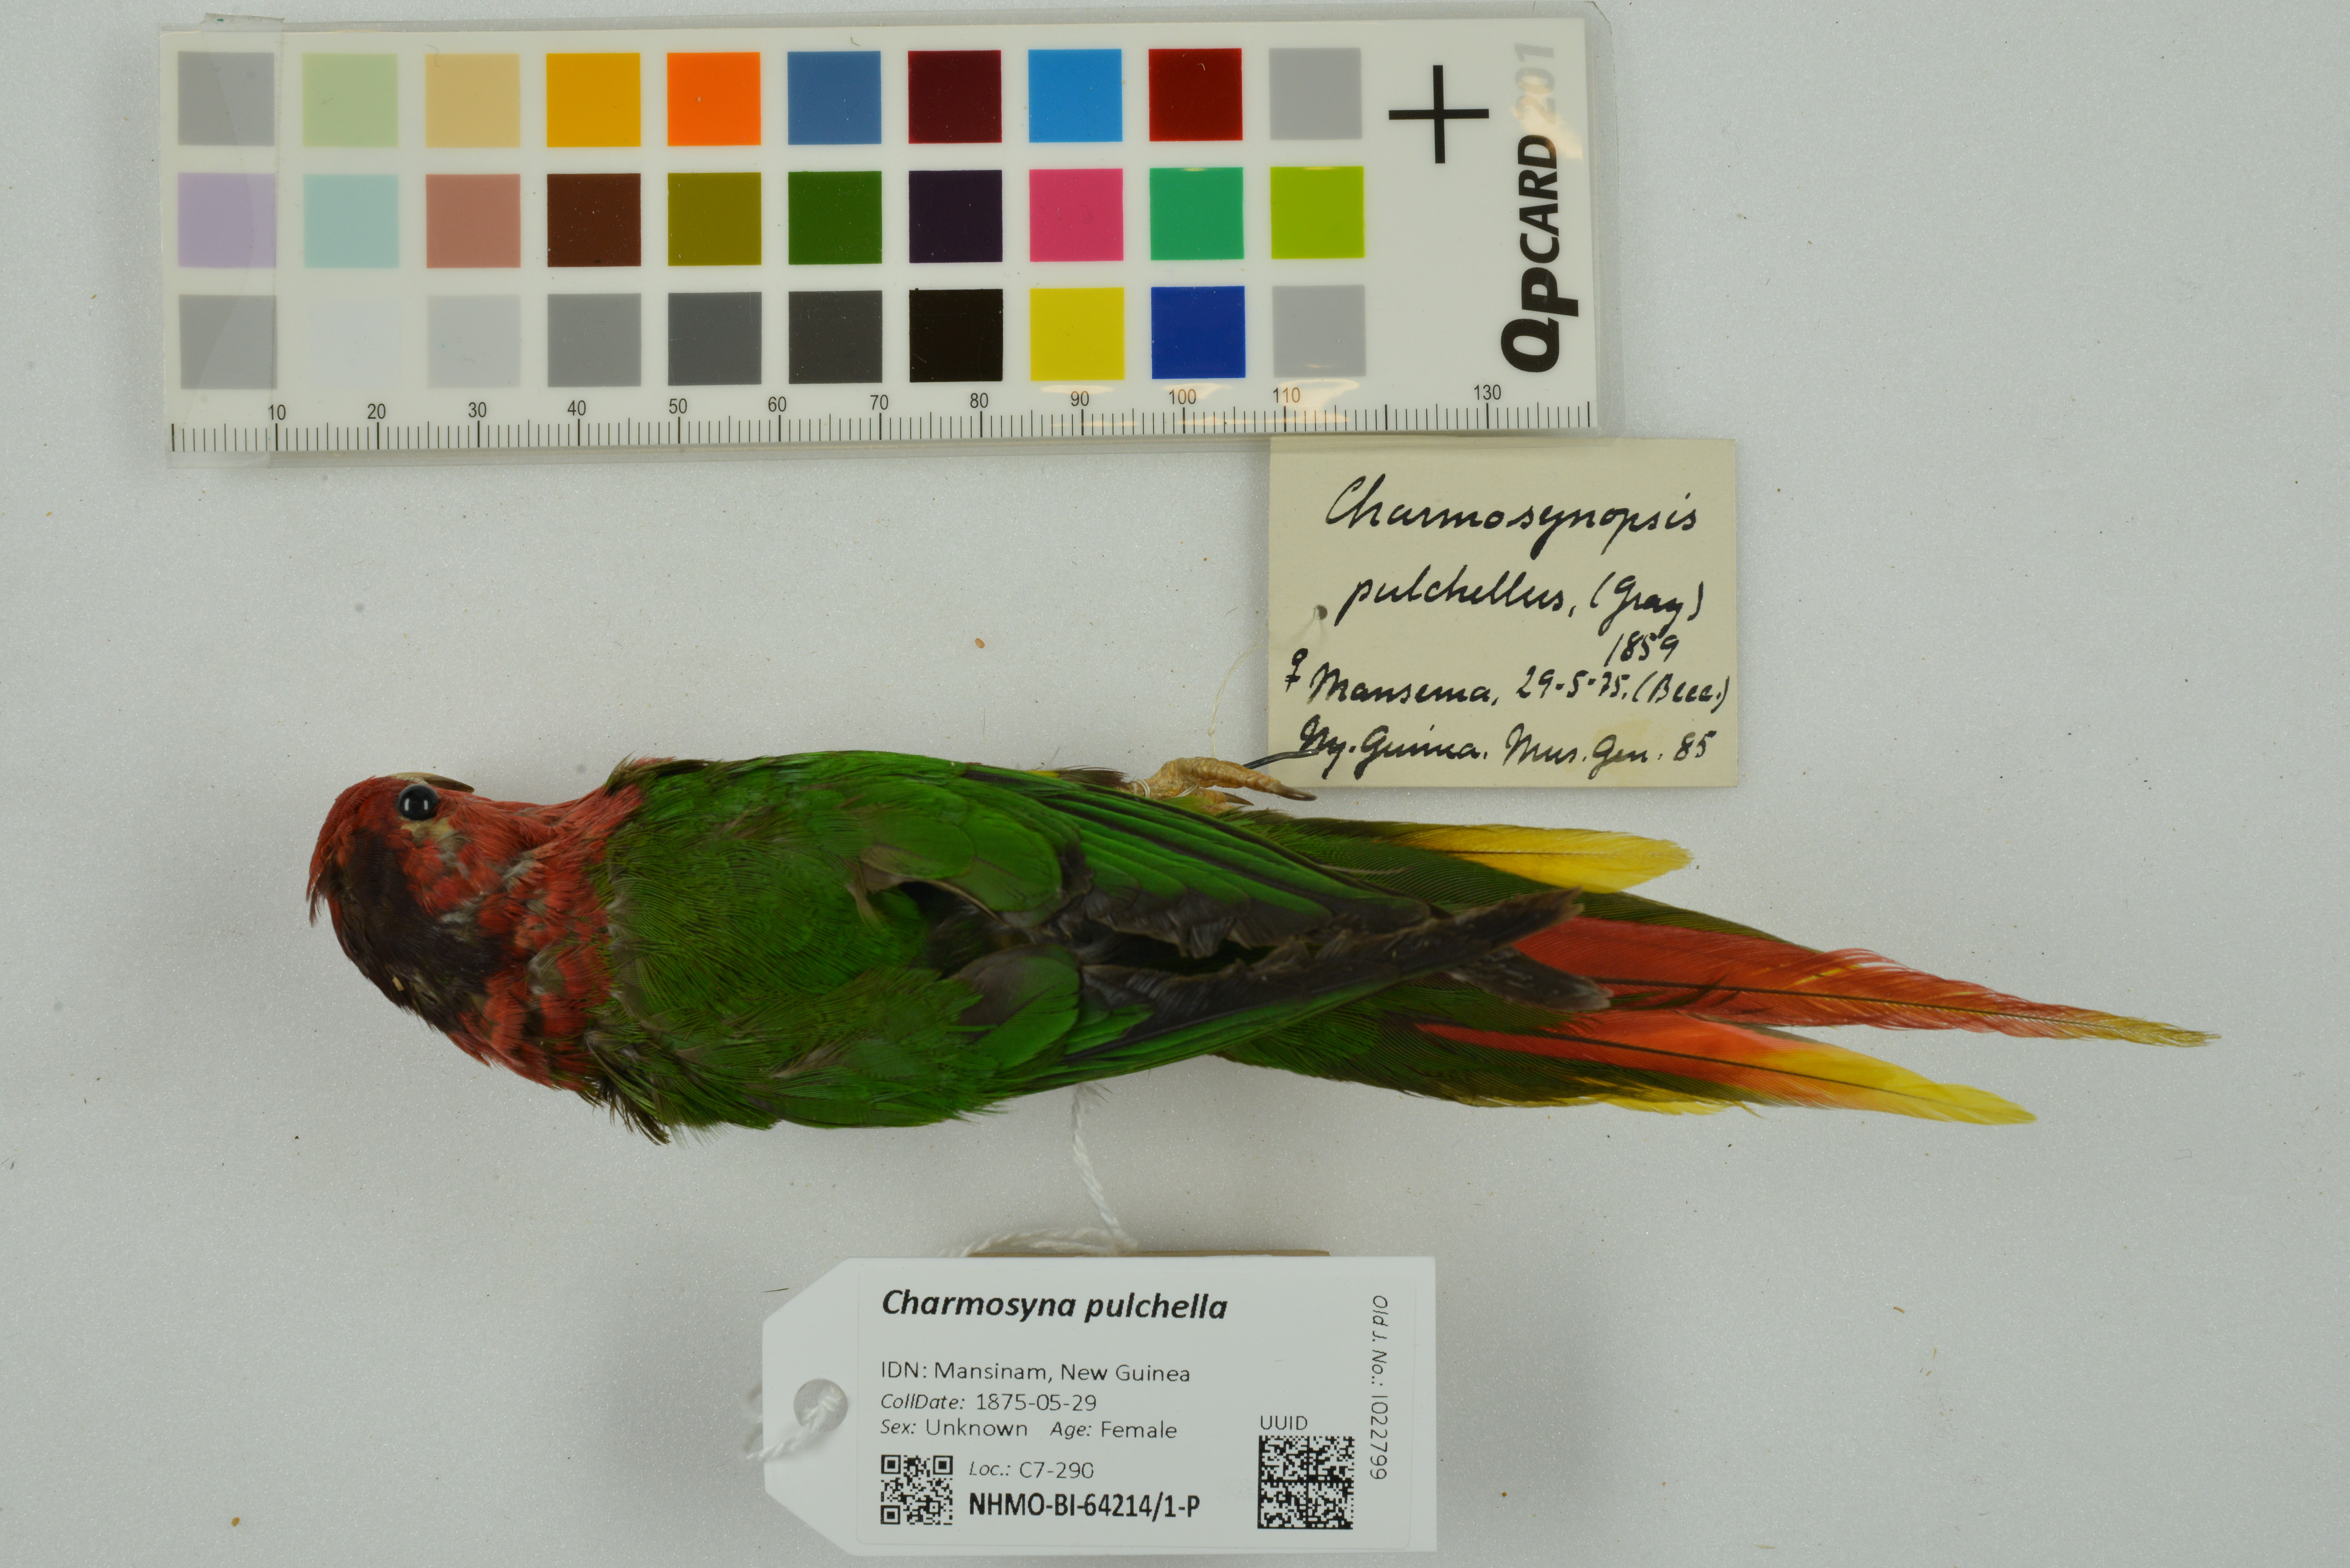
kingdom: Animalia
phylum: Chordata
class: Aves
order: Psittaciformes
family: Psittaculidae
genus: Charmosynopsis
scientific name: Charmosynopsis pulchella
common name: Fairy lorikeet
